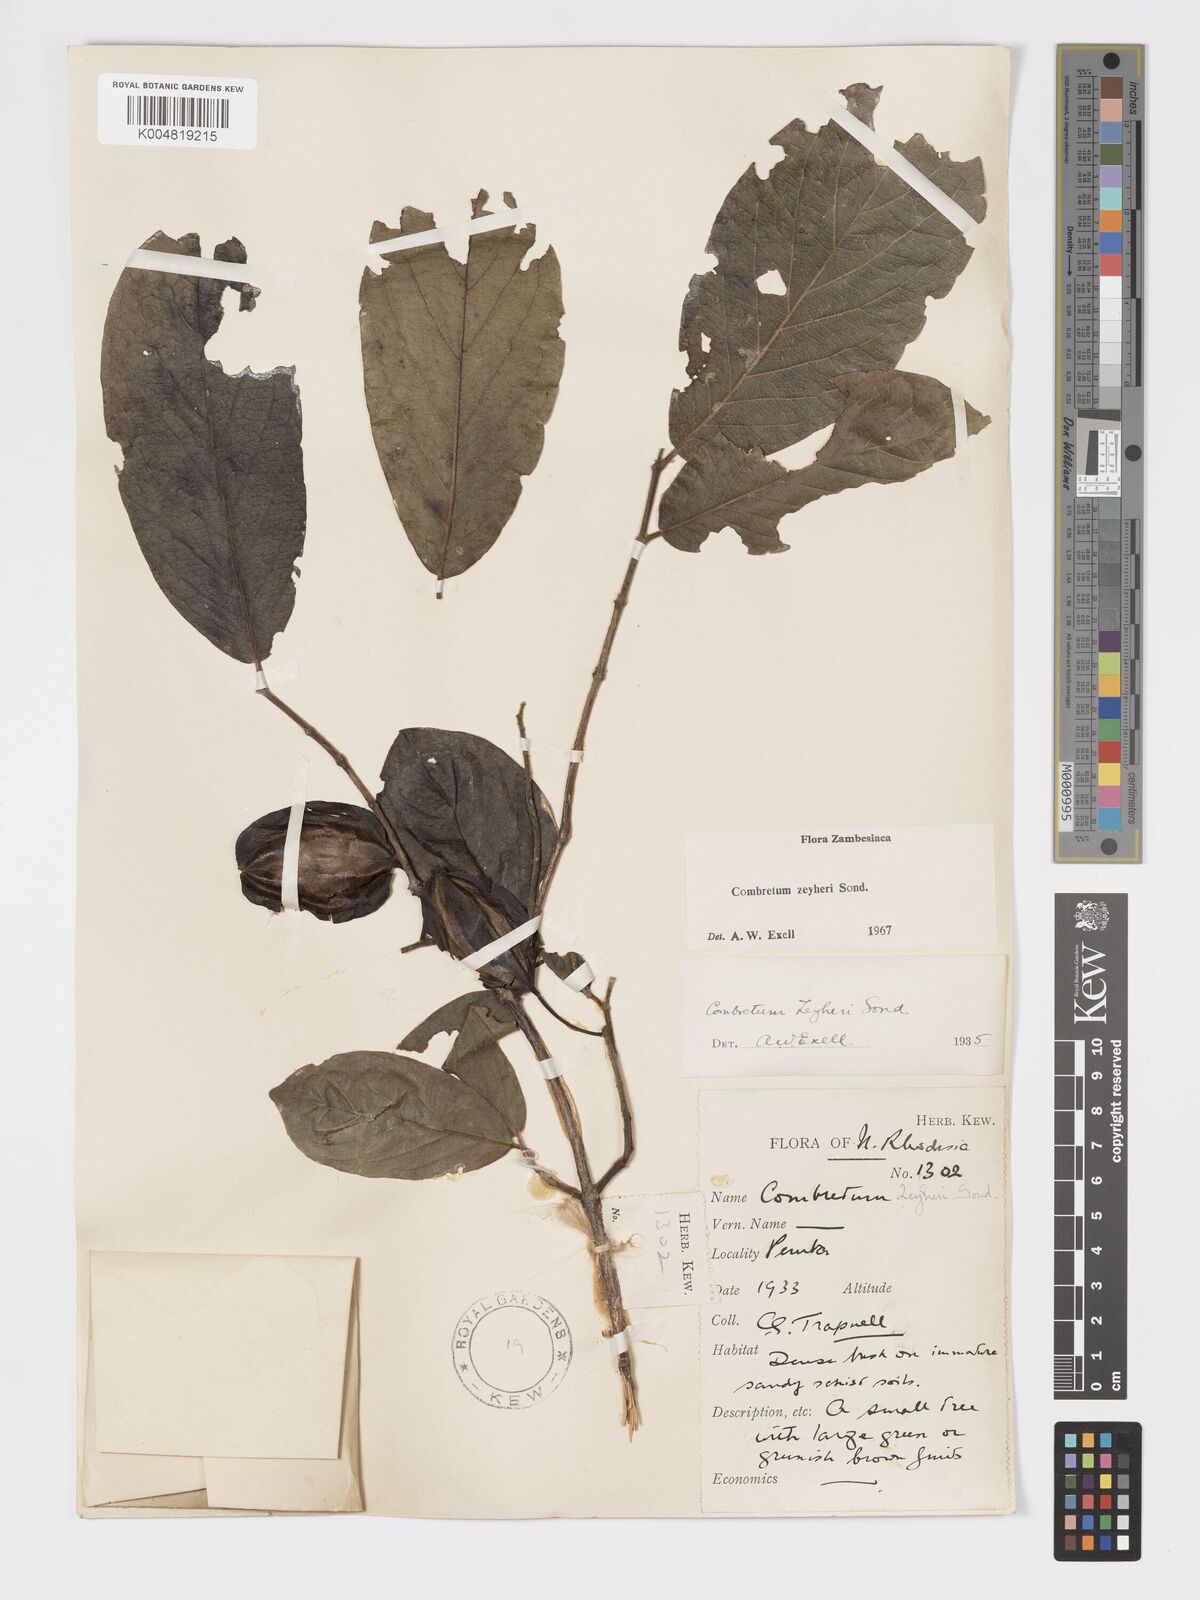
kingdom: Plantae
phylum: Tracheophyta
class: Magnoliopsida
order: Myrtales
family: Combretaceae
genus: Combretum
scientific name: Combretum zeyheri
